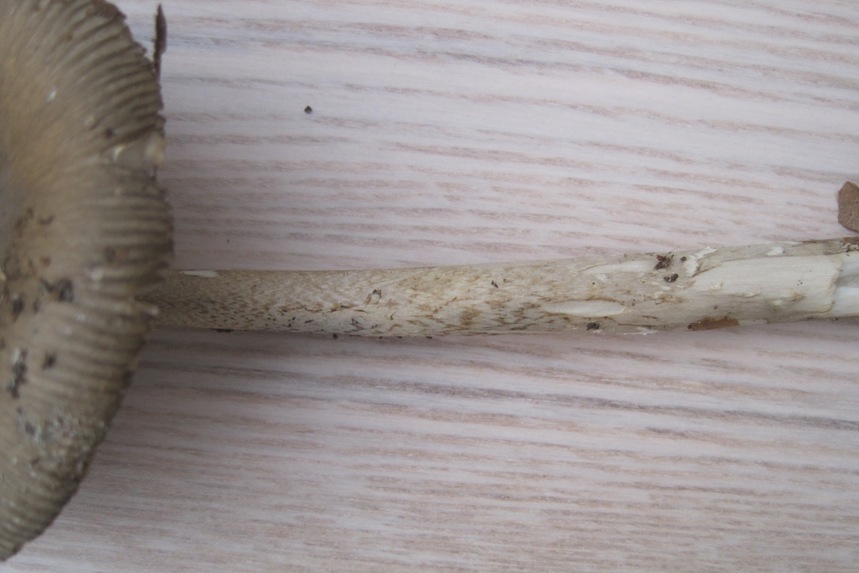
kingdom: Fungi
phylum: Basidiomycota
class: Agaricomycetes
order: Agaricales
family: Amanitaceae
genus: Amanita
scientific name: Amanita submembranacea
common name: gråspættet kam-fluesvamp
